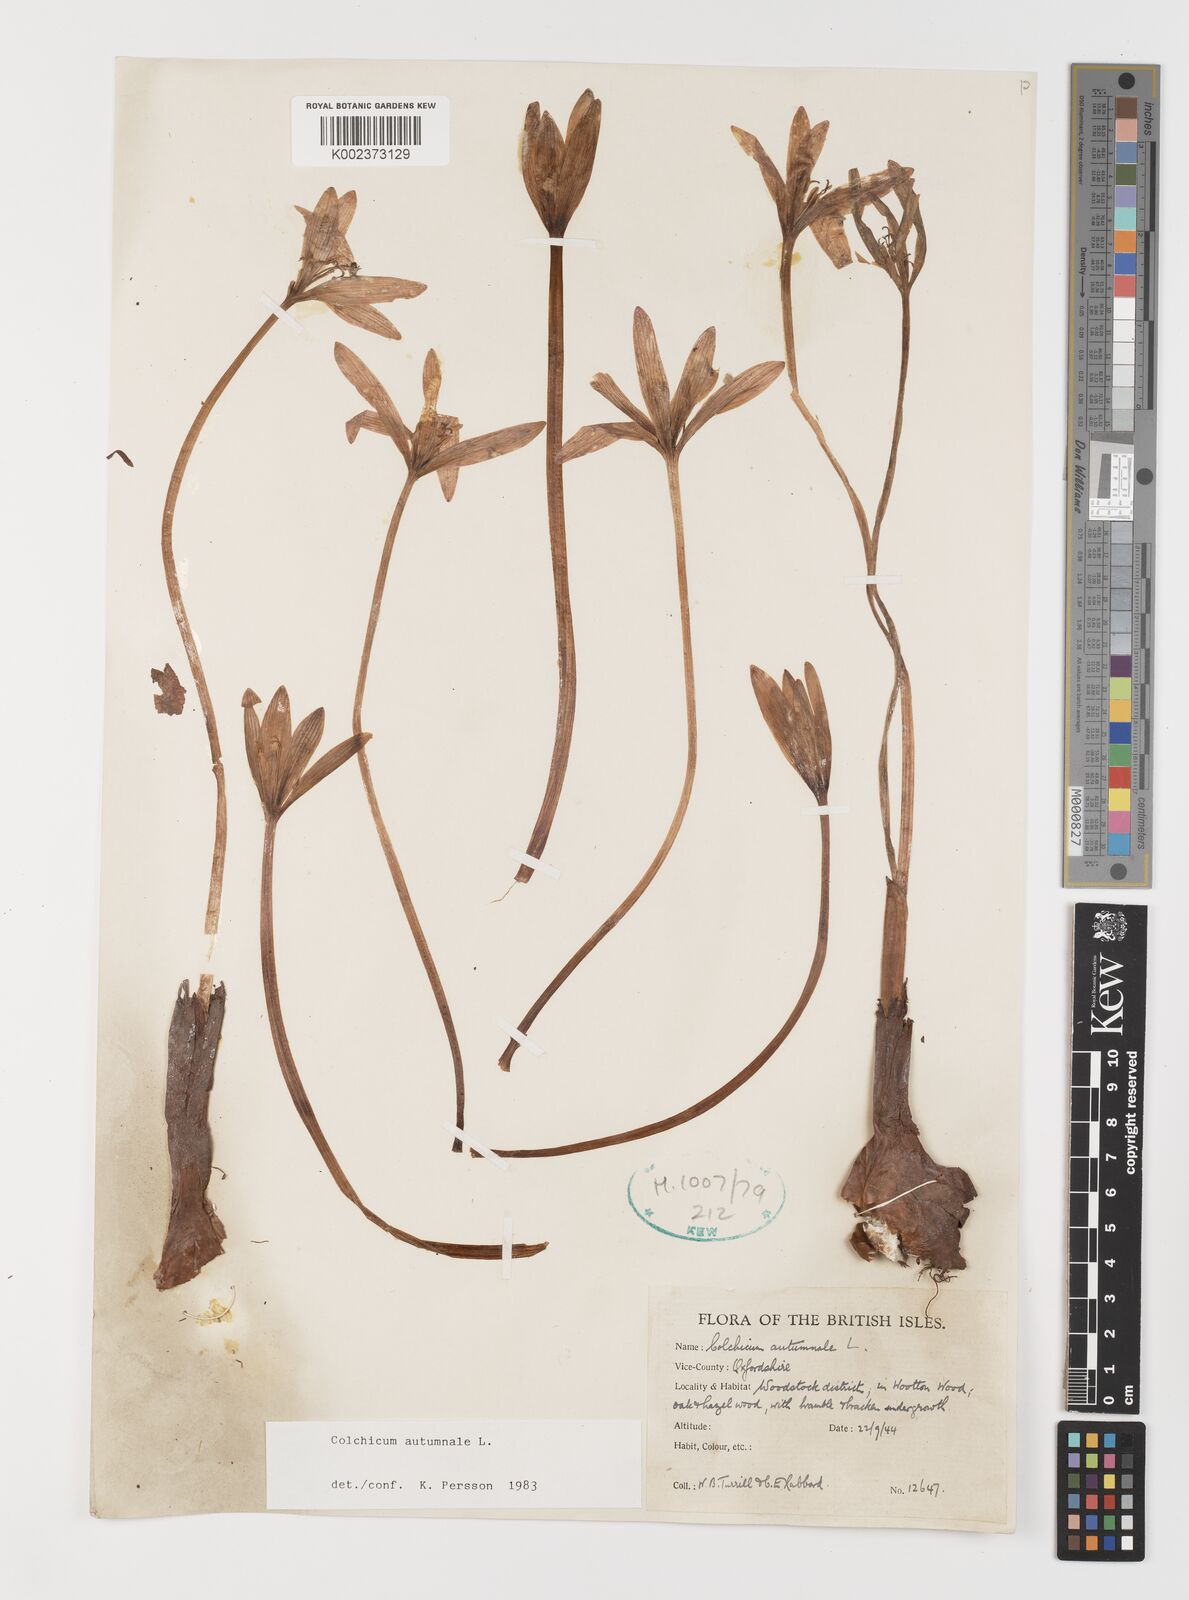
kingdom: Plantae
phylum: Tracheophyta
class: Liliopsida
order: Liliales
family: Colchicaceae
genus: Colchicum
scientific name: Colchicum autumnale
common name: Autumn crocus
